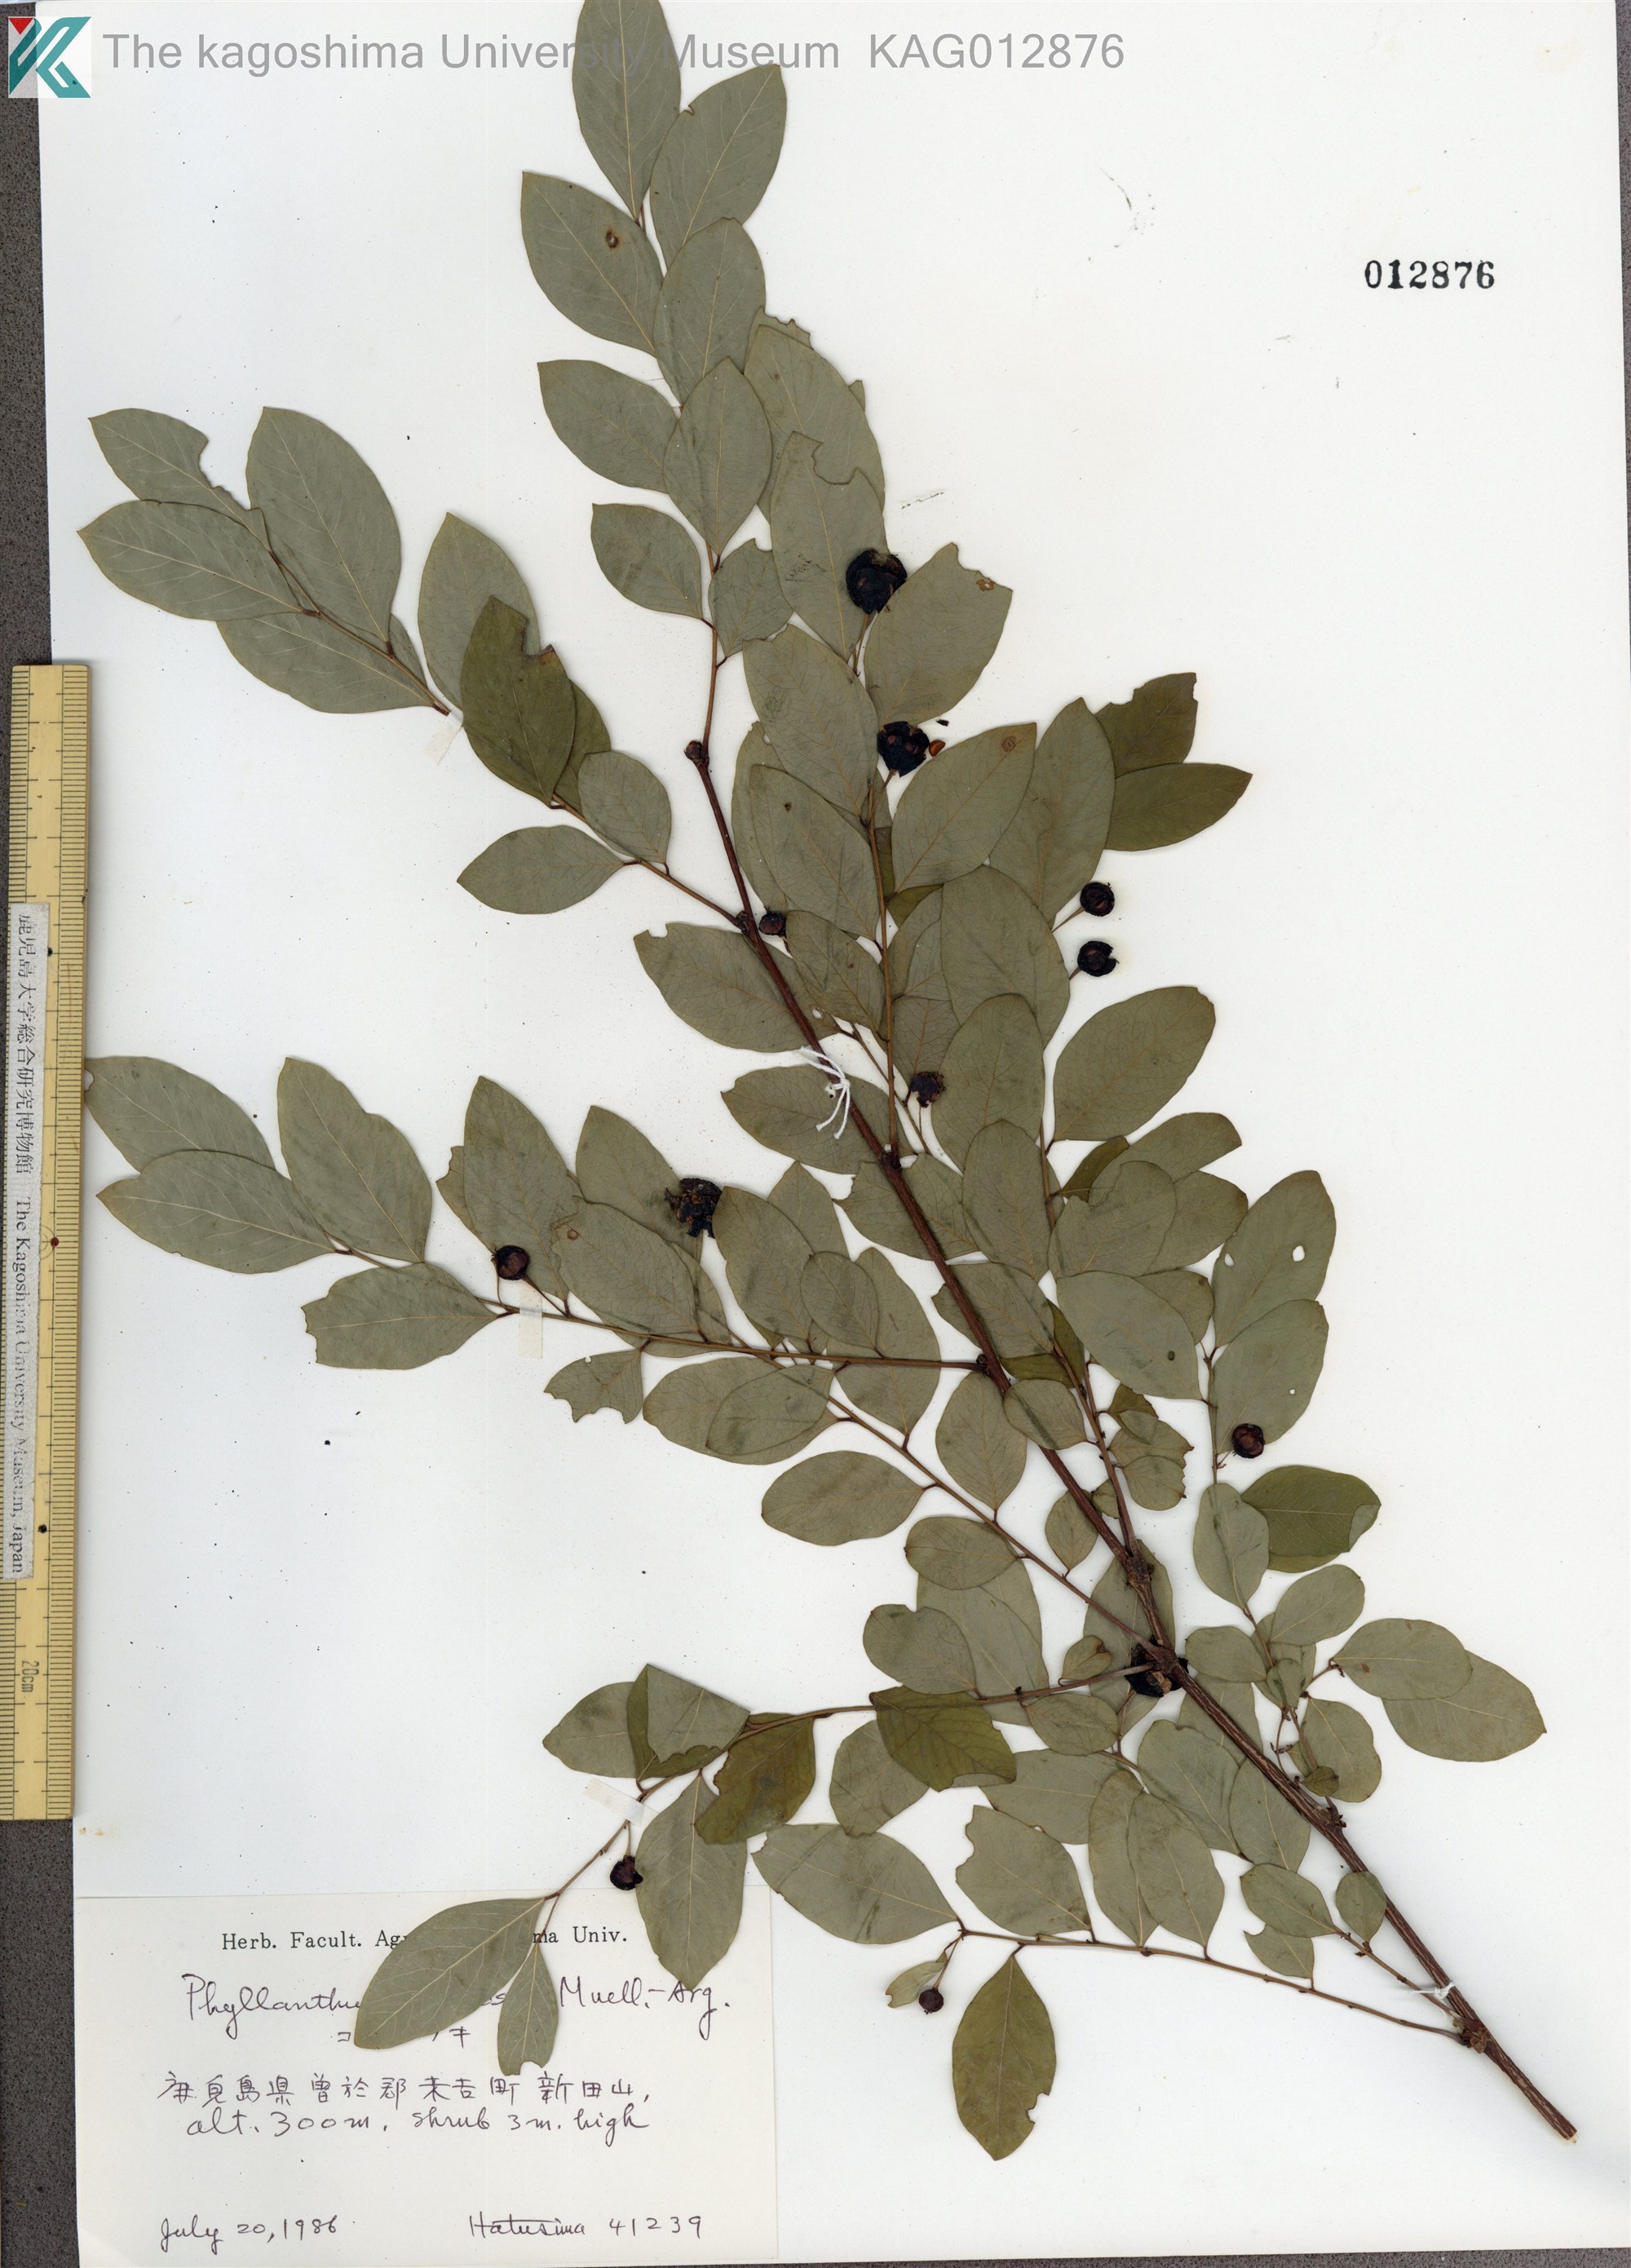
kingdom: Plantae
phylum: Tracheophyta
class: Magnoliopsida
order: Malpighiales
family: Phyllanthaceae
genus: Phyllanthus
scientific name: Phyllanthus flexuosus
